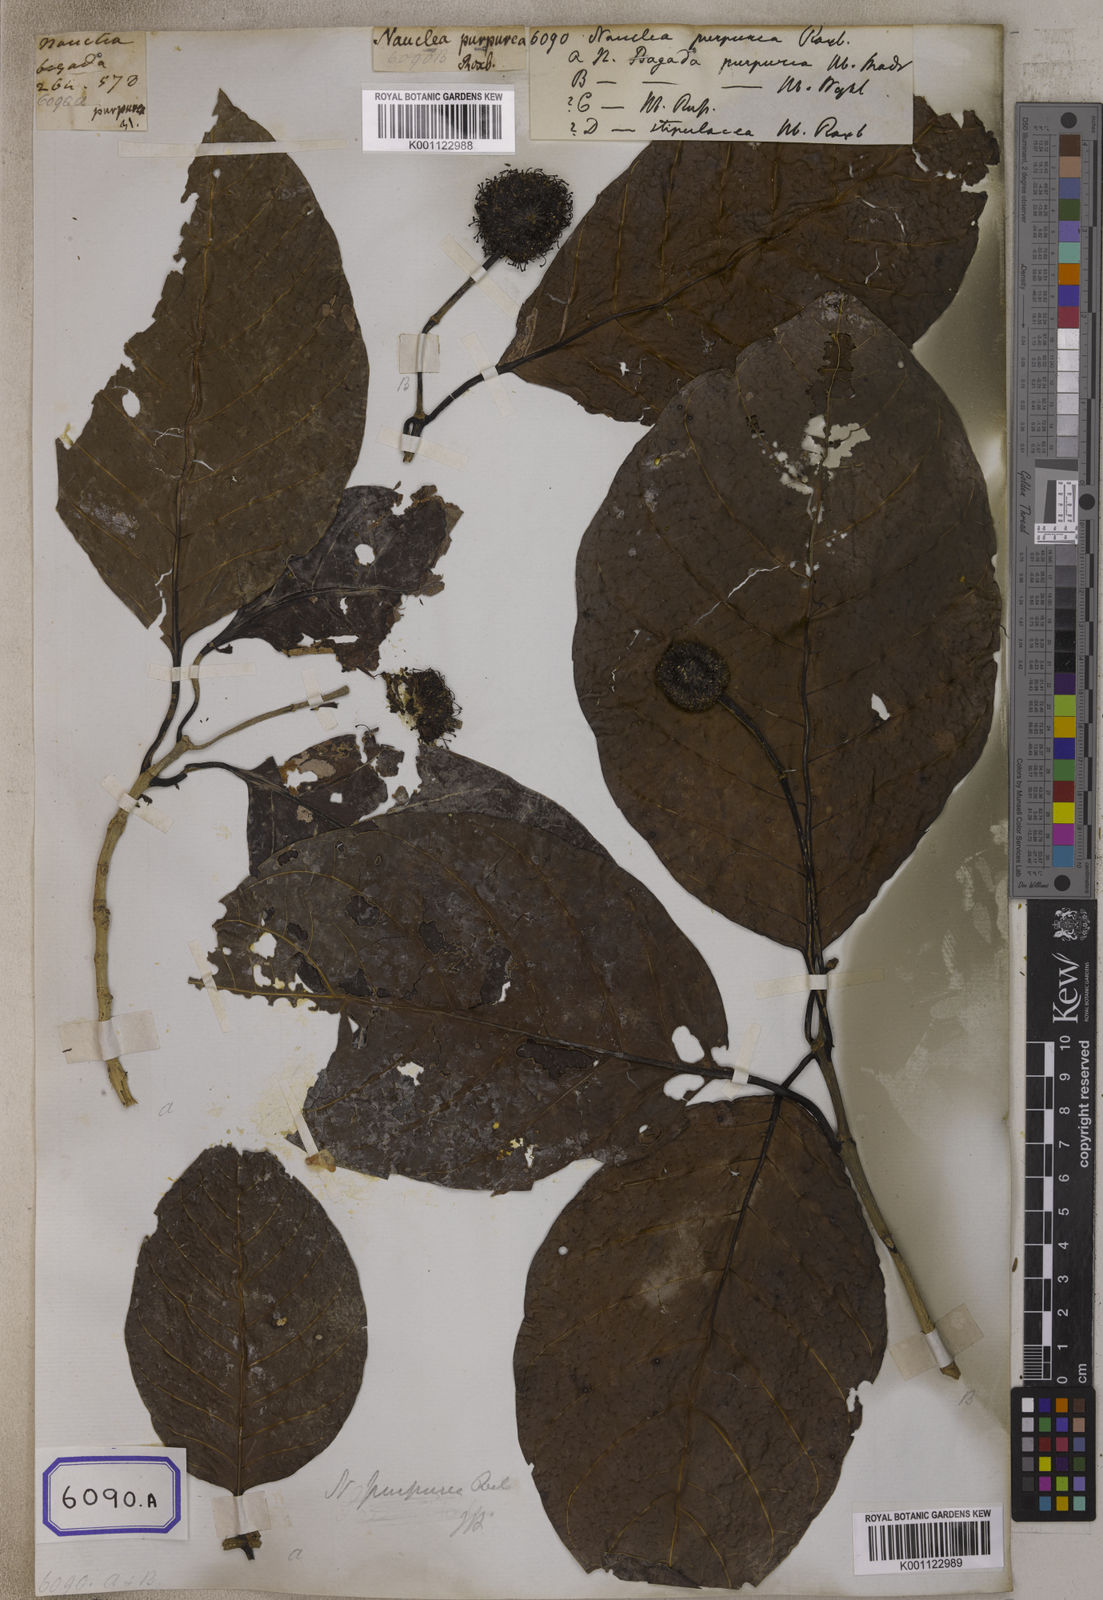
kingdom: Plantae
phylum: Tracheophyta
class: Magnoliopsida
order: Gentianales
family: Rubiaceae
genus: Nauclea
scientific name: Nauclea
